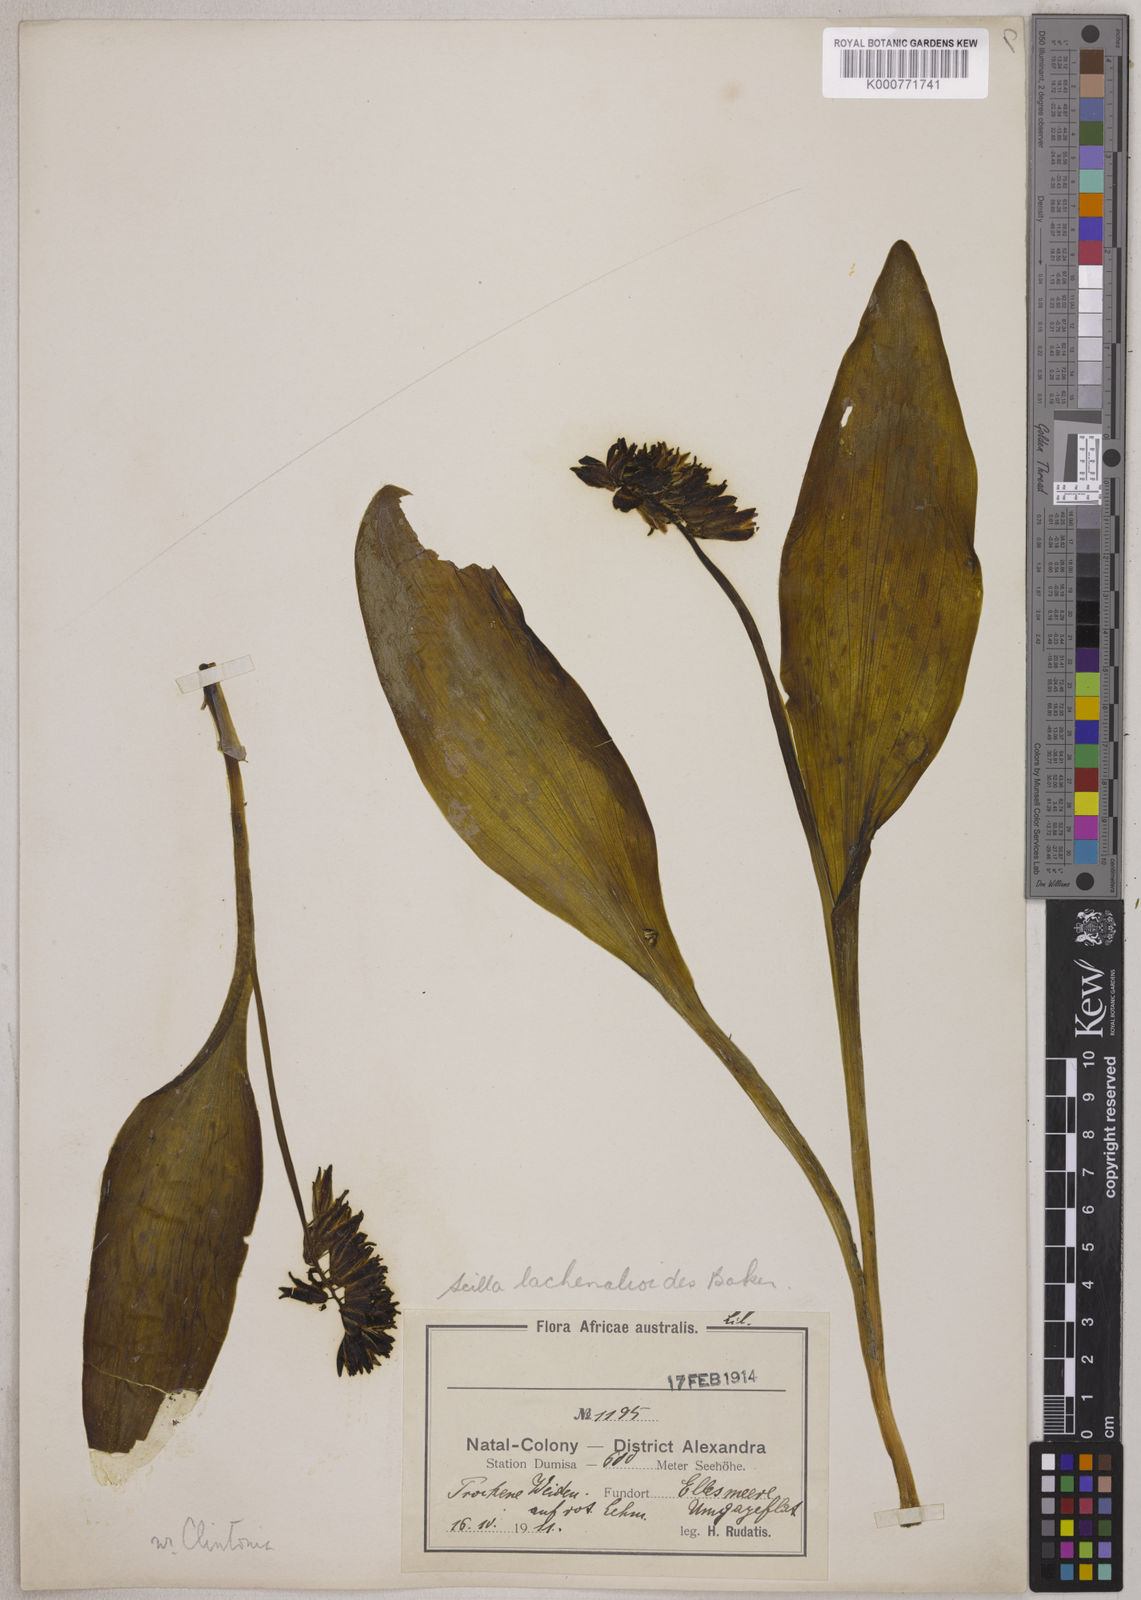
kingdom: Plantae
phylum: Tracheophyta
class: Liliopsida
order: Asparagales
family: Asparagaceae
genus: Resnova
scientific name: Resnova lachenalioides
